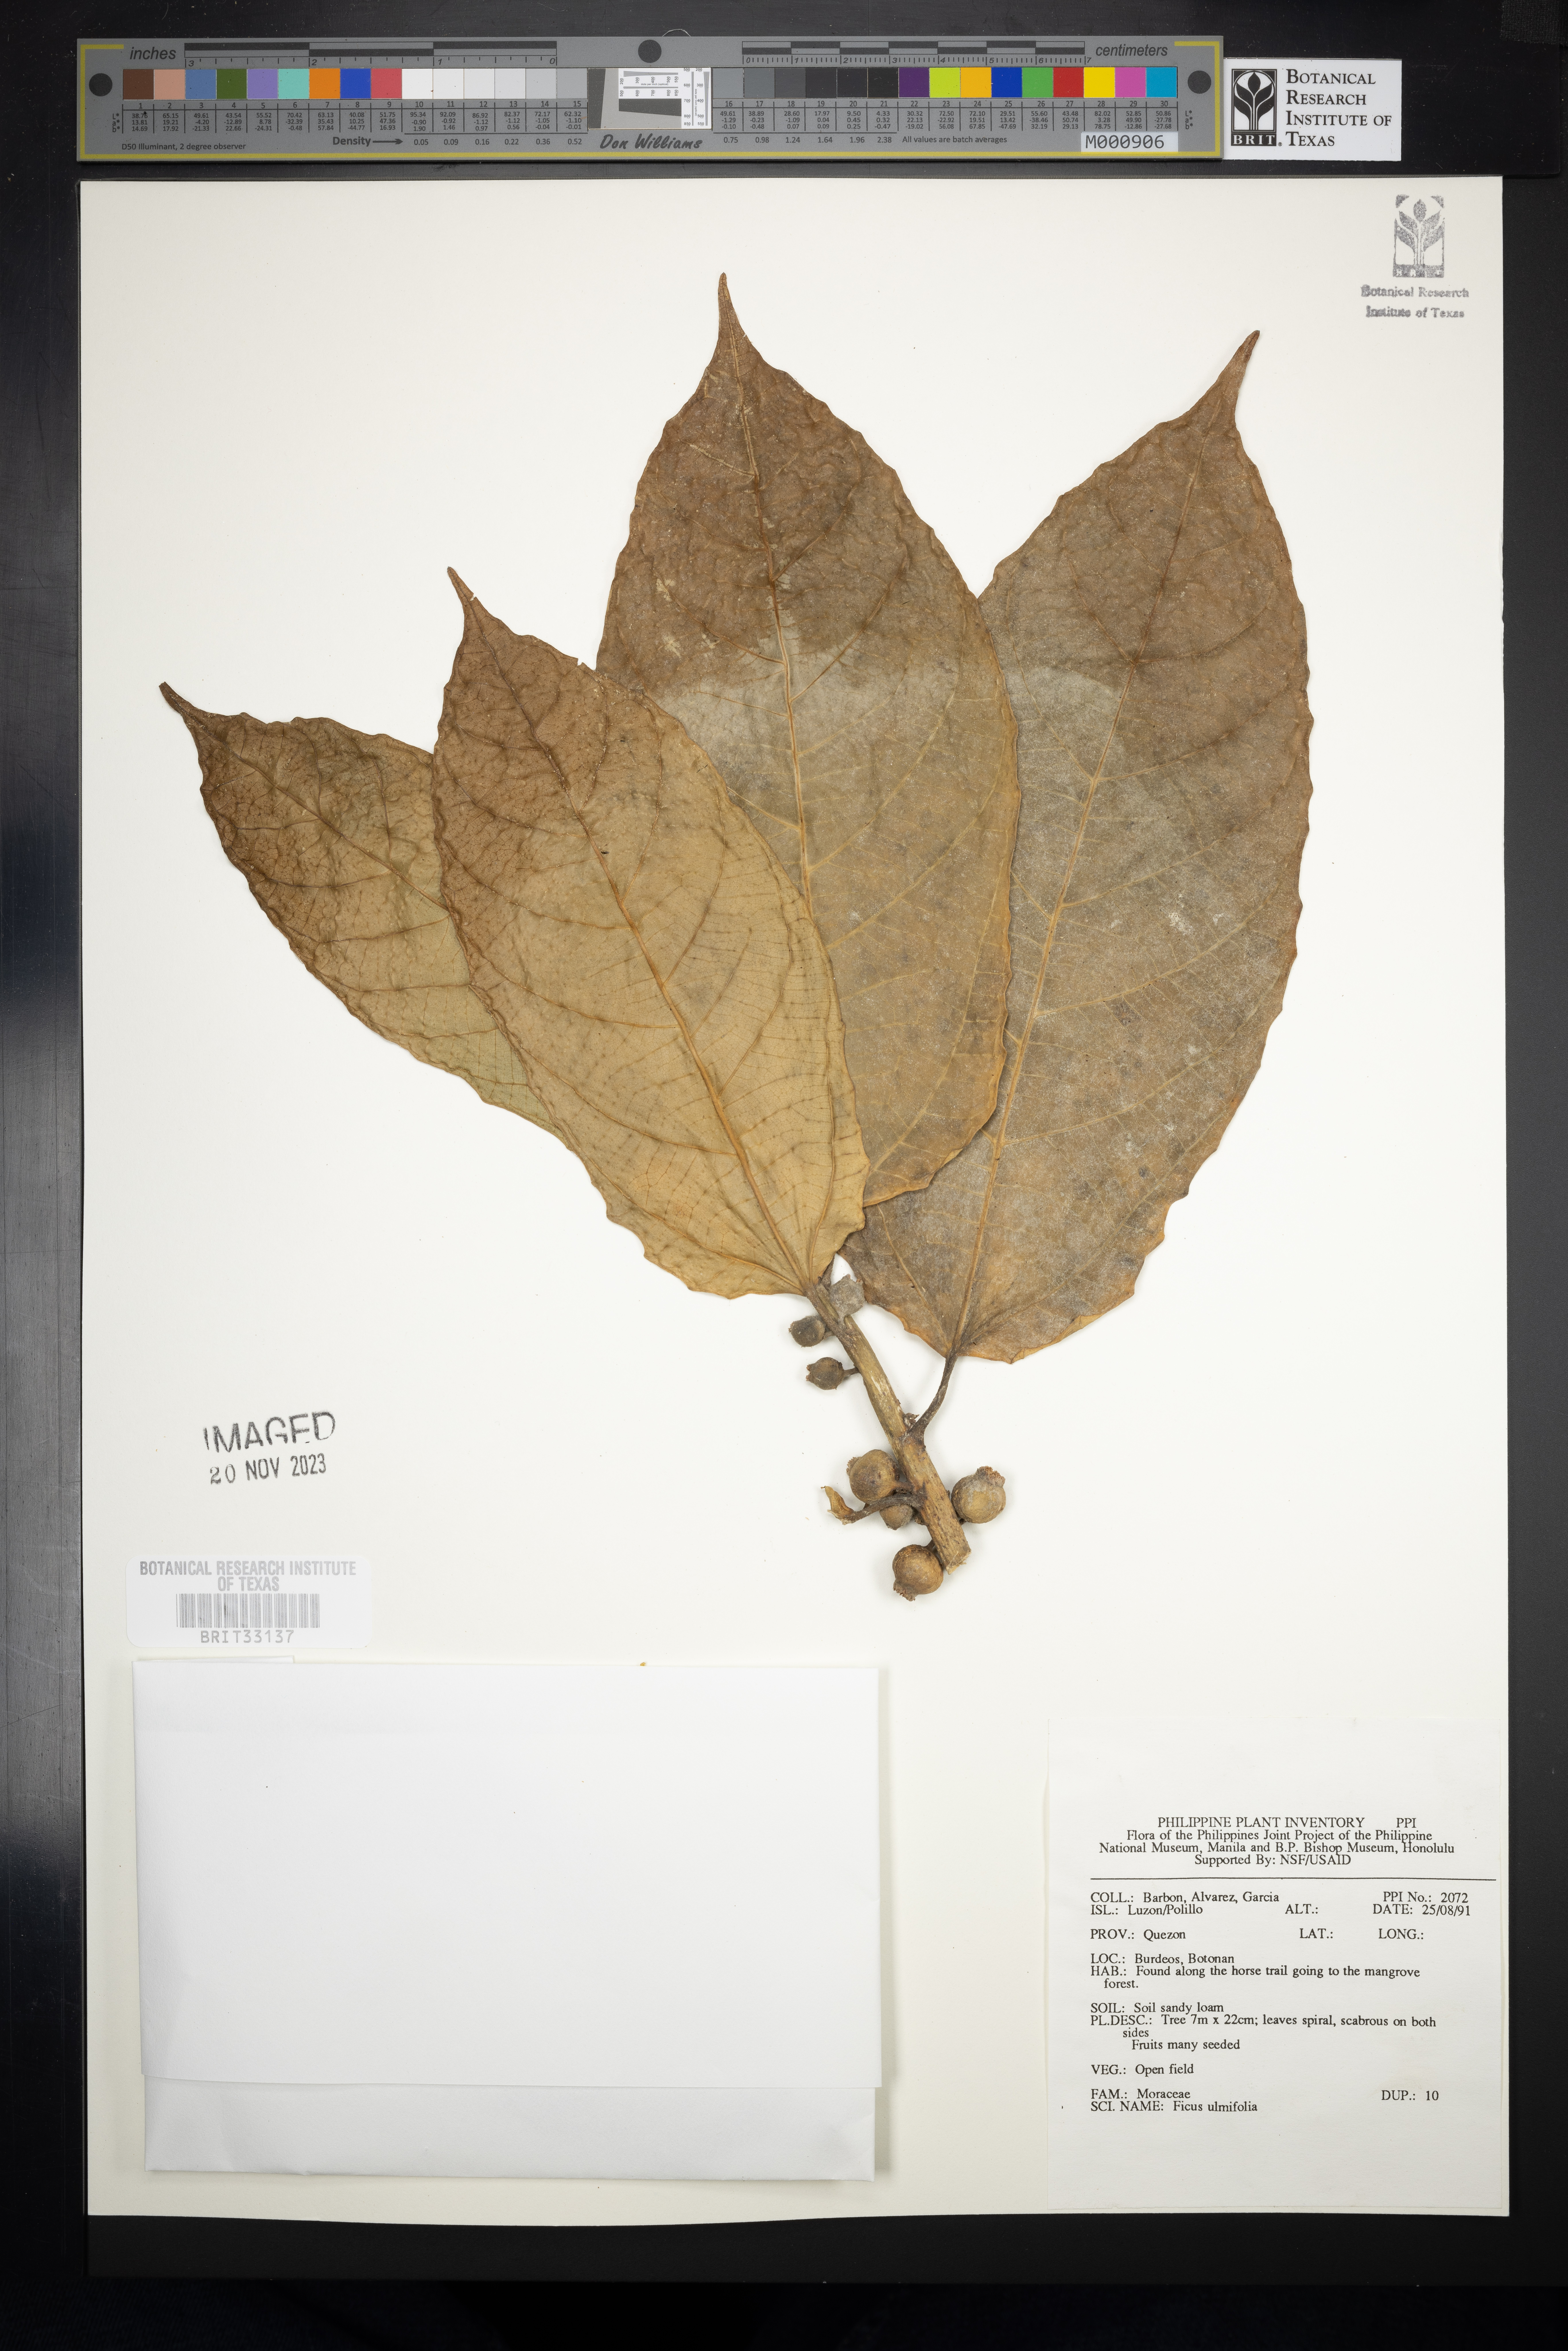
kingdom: Plantae
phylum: Tracheophyta
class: Magnoliopsida
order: Rosales
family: Moraceae
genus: Ficus
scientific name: Ficus ulmifolia
